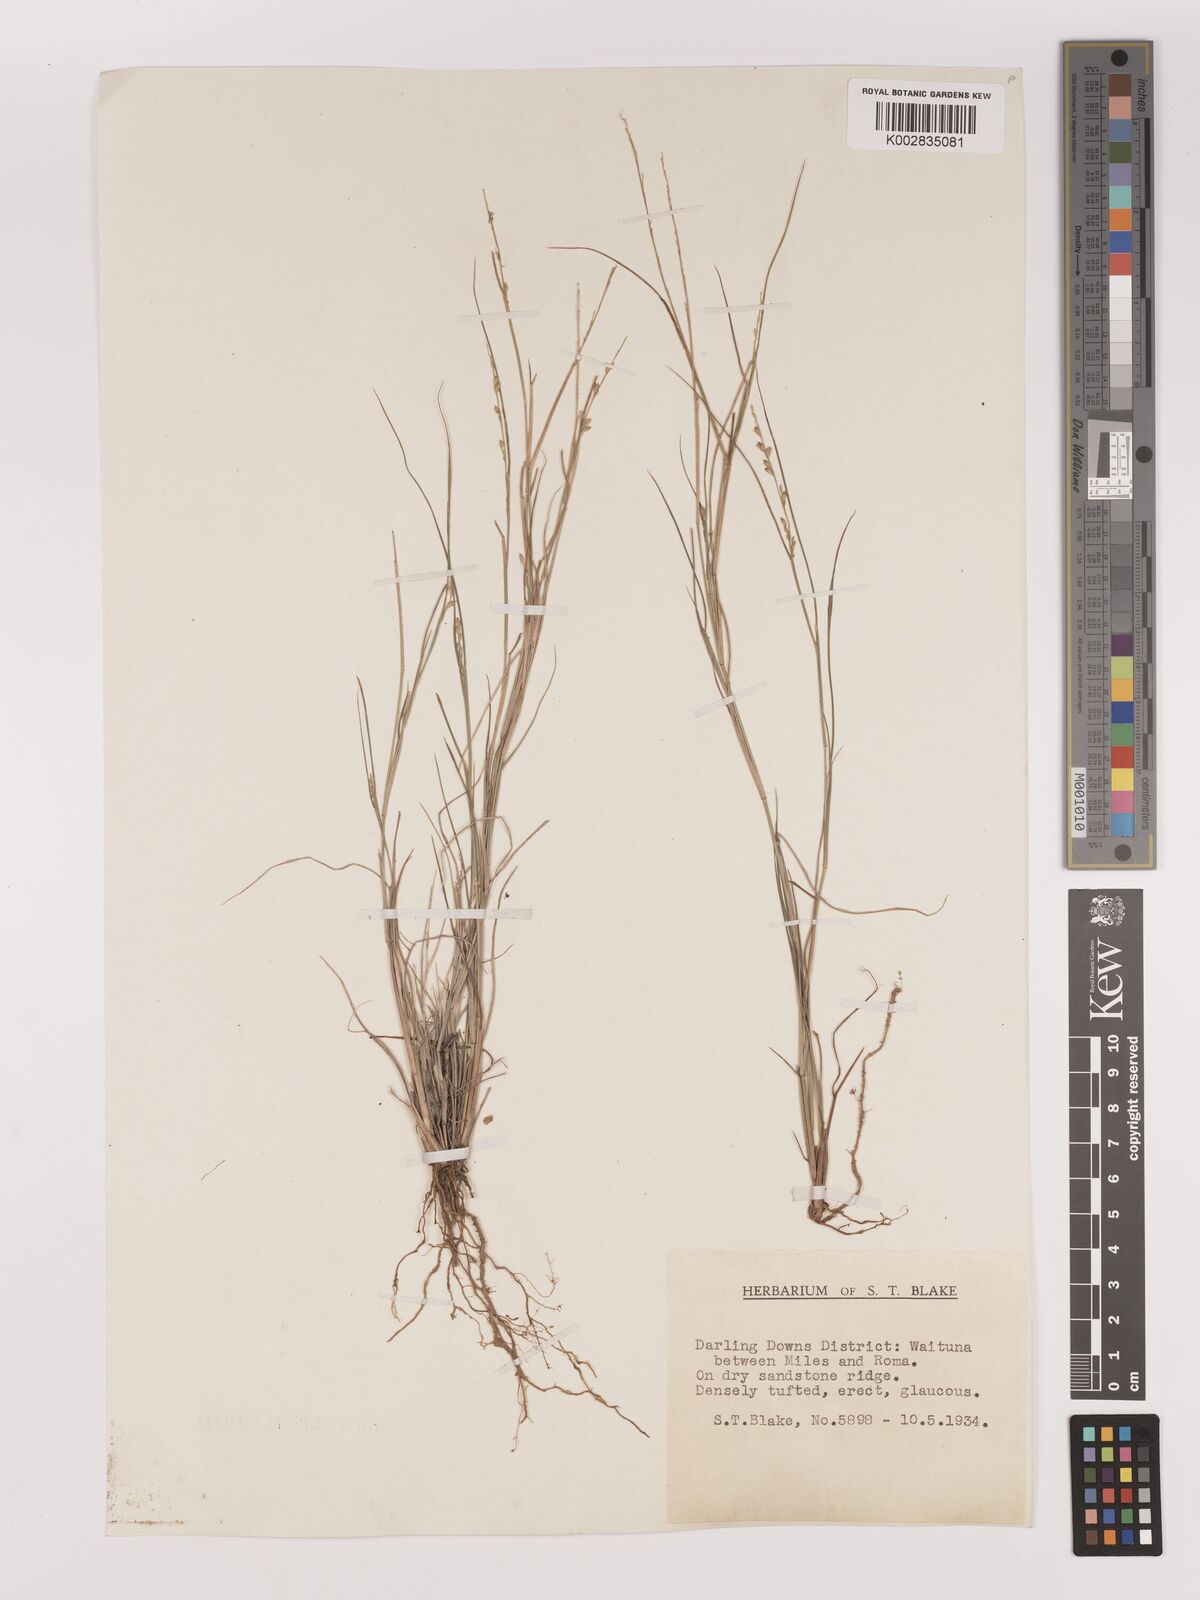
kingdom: Plantae
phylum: Tracheophyta
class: Liliopsida
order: Poales
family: Poaceae
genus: Setaria
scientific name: Setaria
